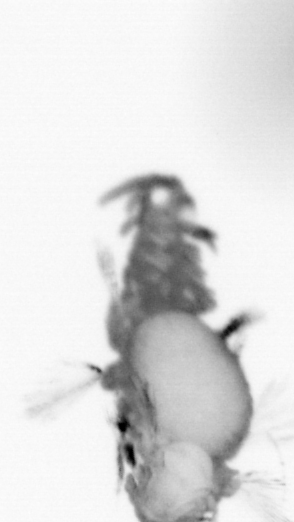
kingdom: Animalia
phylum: Annelida
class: Polychaeta
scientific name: Polychaeta
